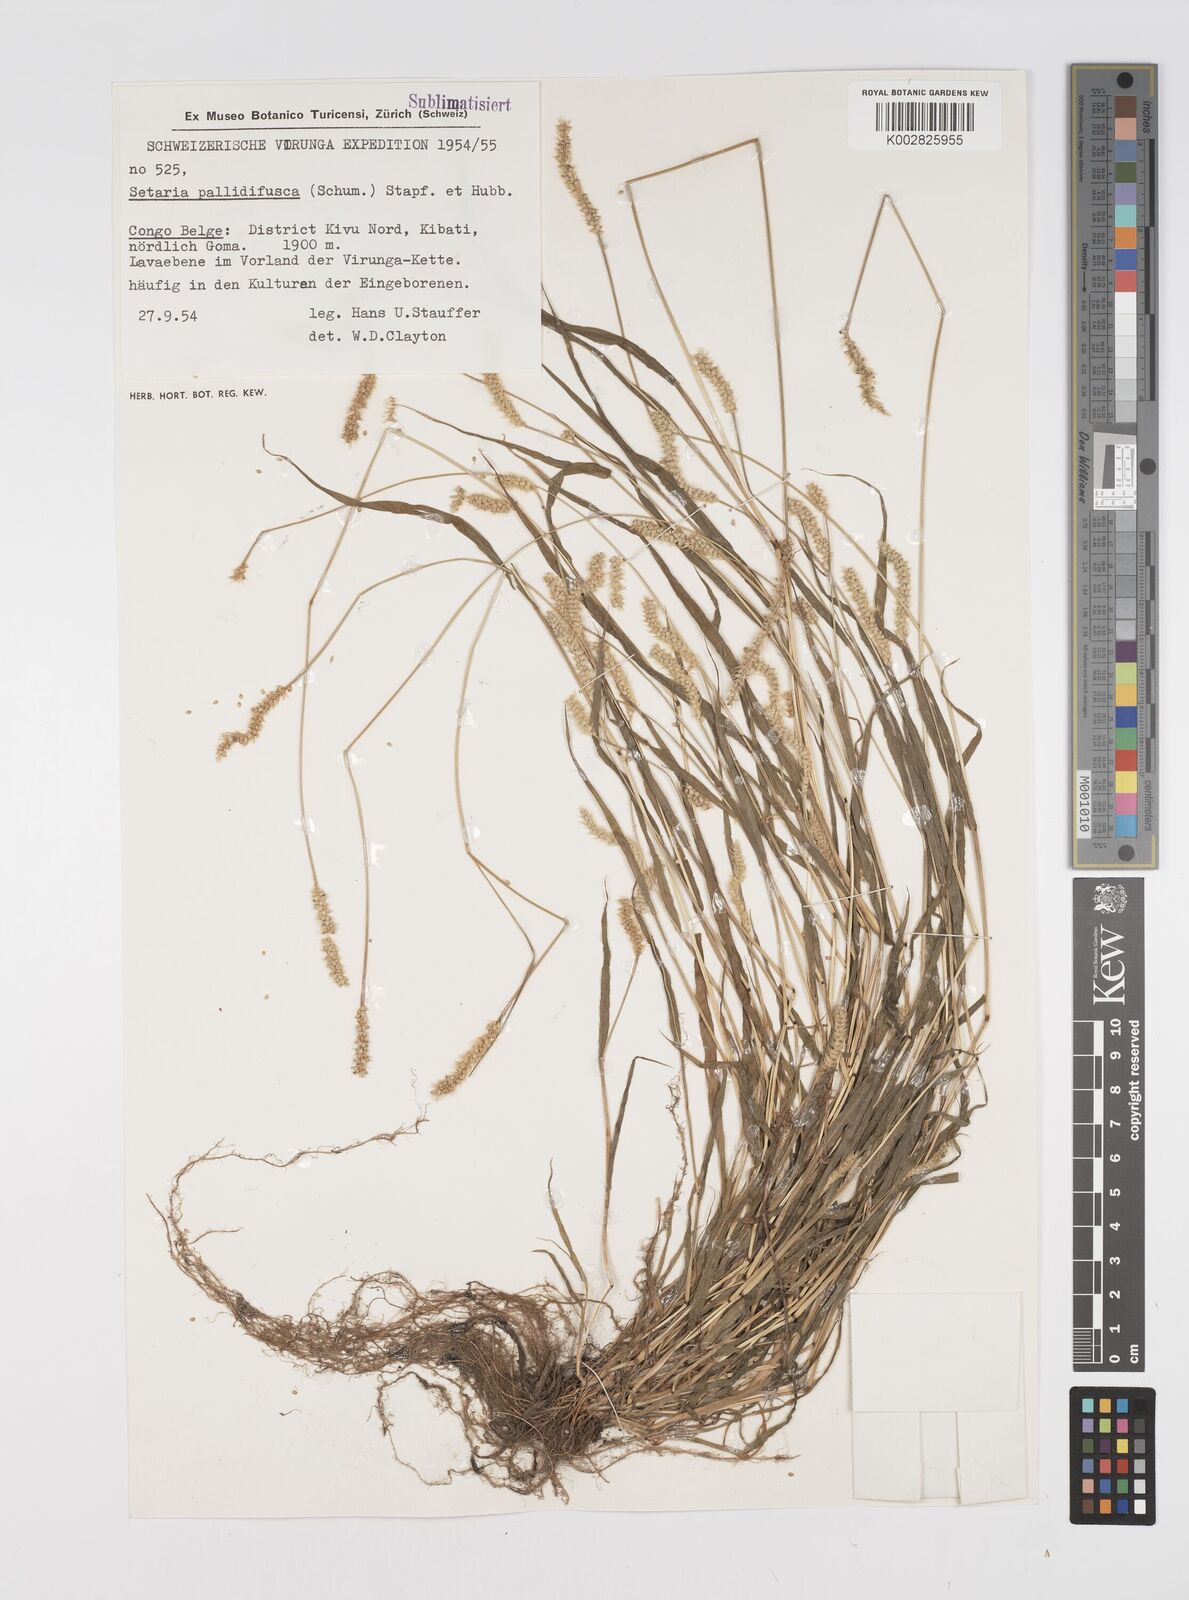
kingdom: Plantae
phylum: Tracheophyta
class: Liliopsida
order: Poales
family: Poaceae
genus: Setaria
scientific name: Setaria pumila
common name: Yellow bristle-grass
